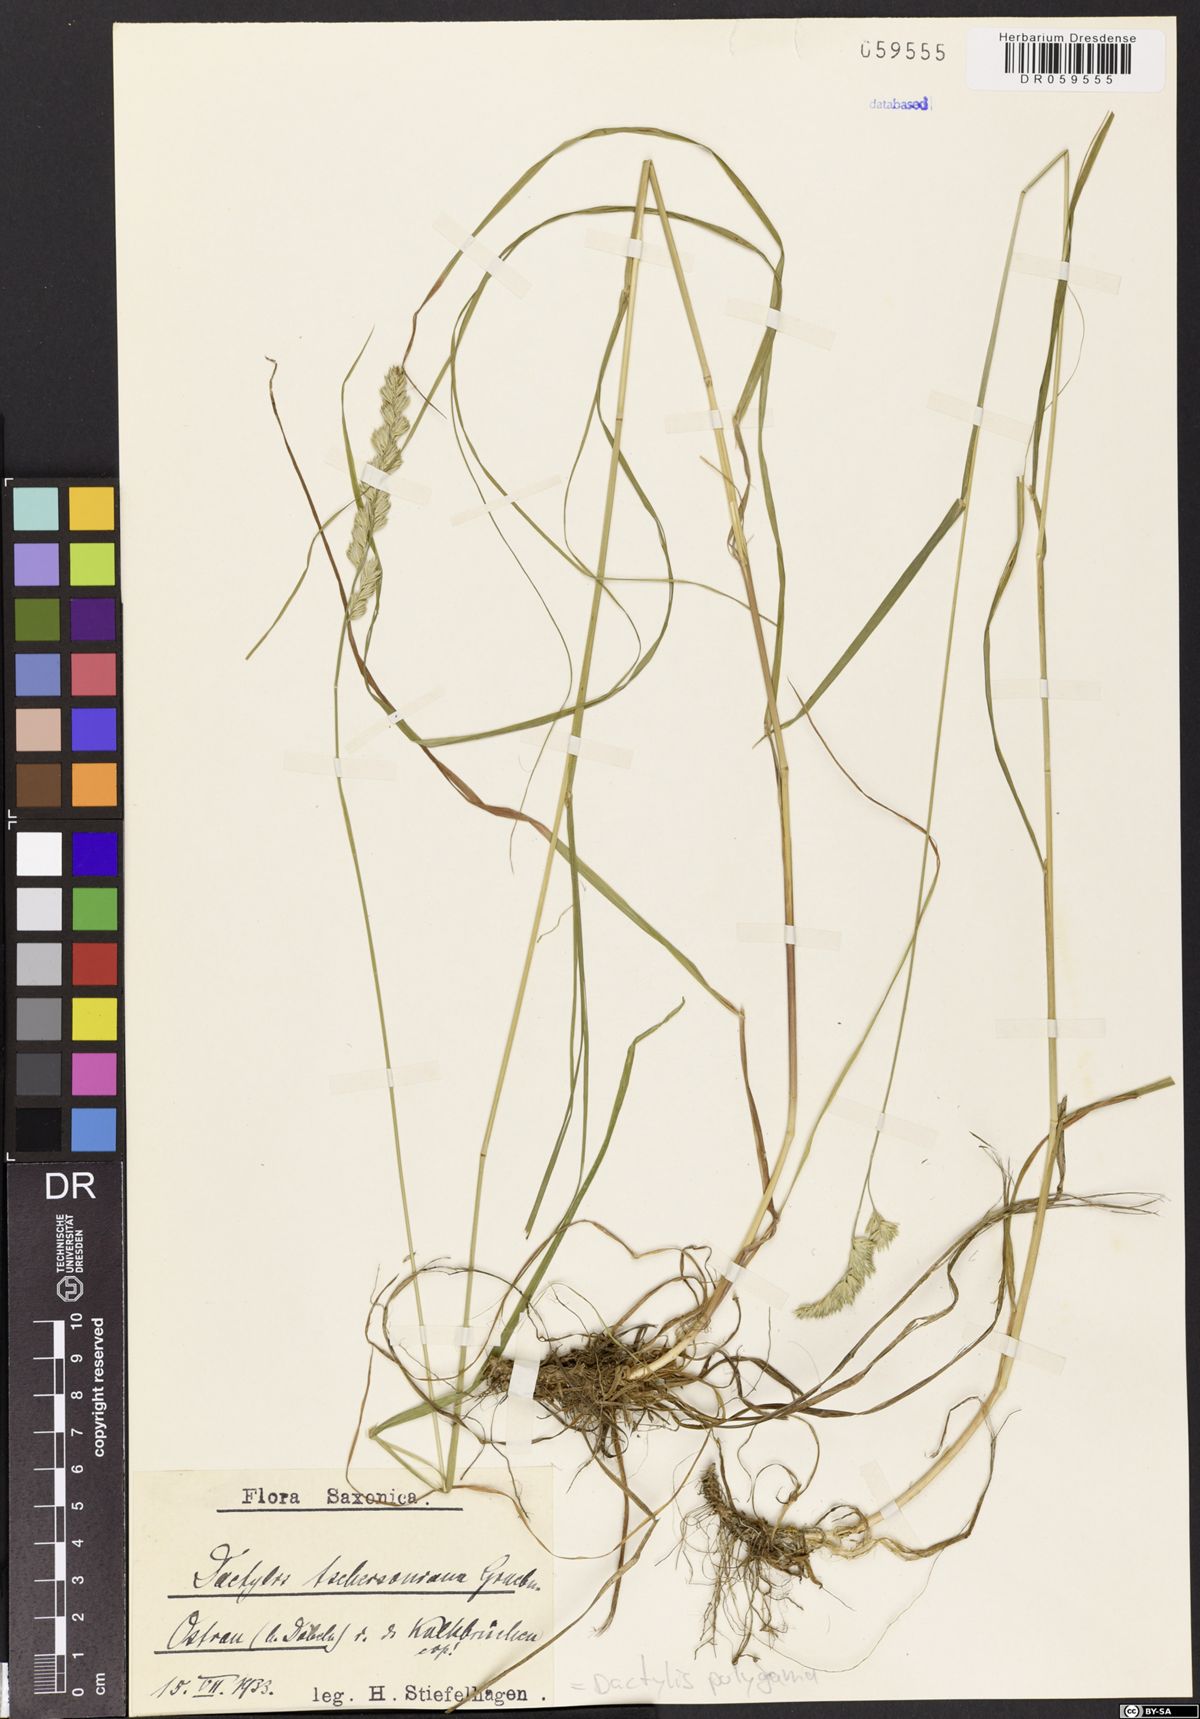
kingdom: Plantae
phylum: Tracheophyta
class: Liliopsida
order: Poales
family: Poaceae
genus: Dactylis
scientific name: Dactylis glomerata
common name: Orchardgrass
